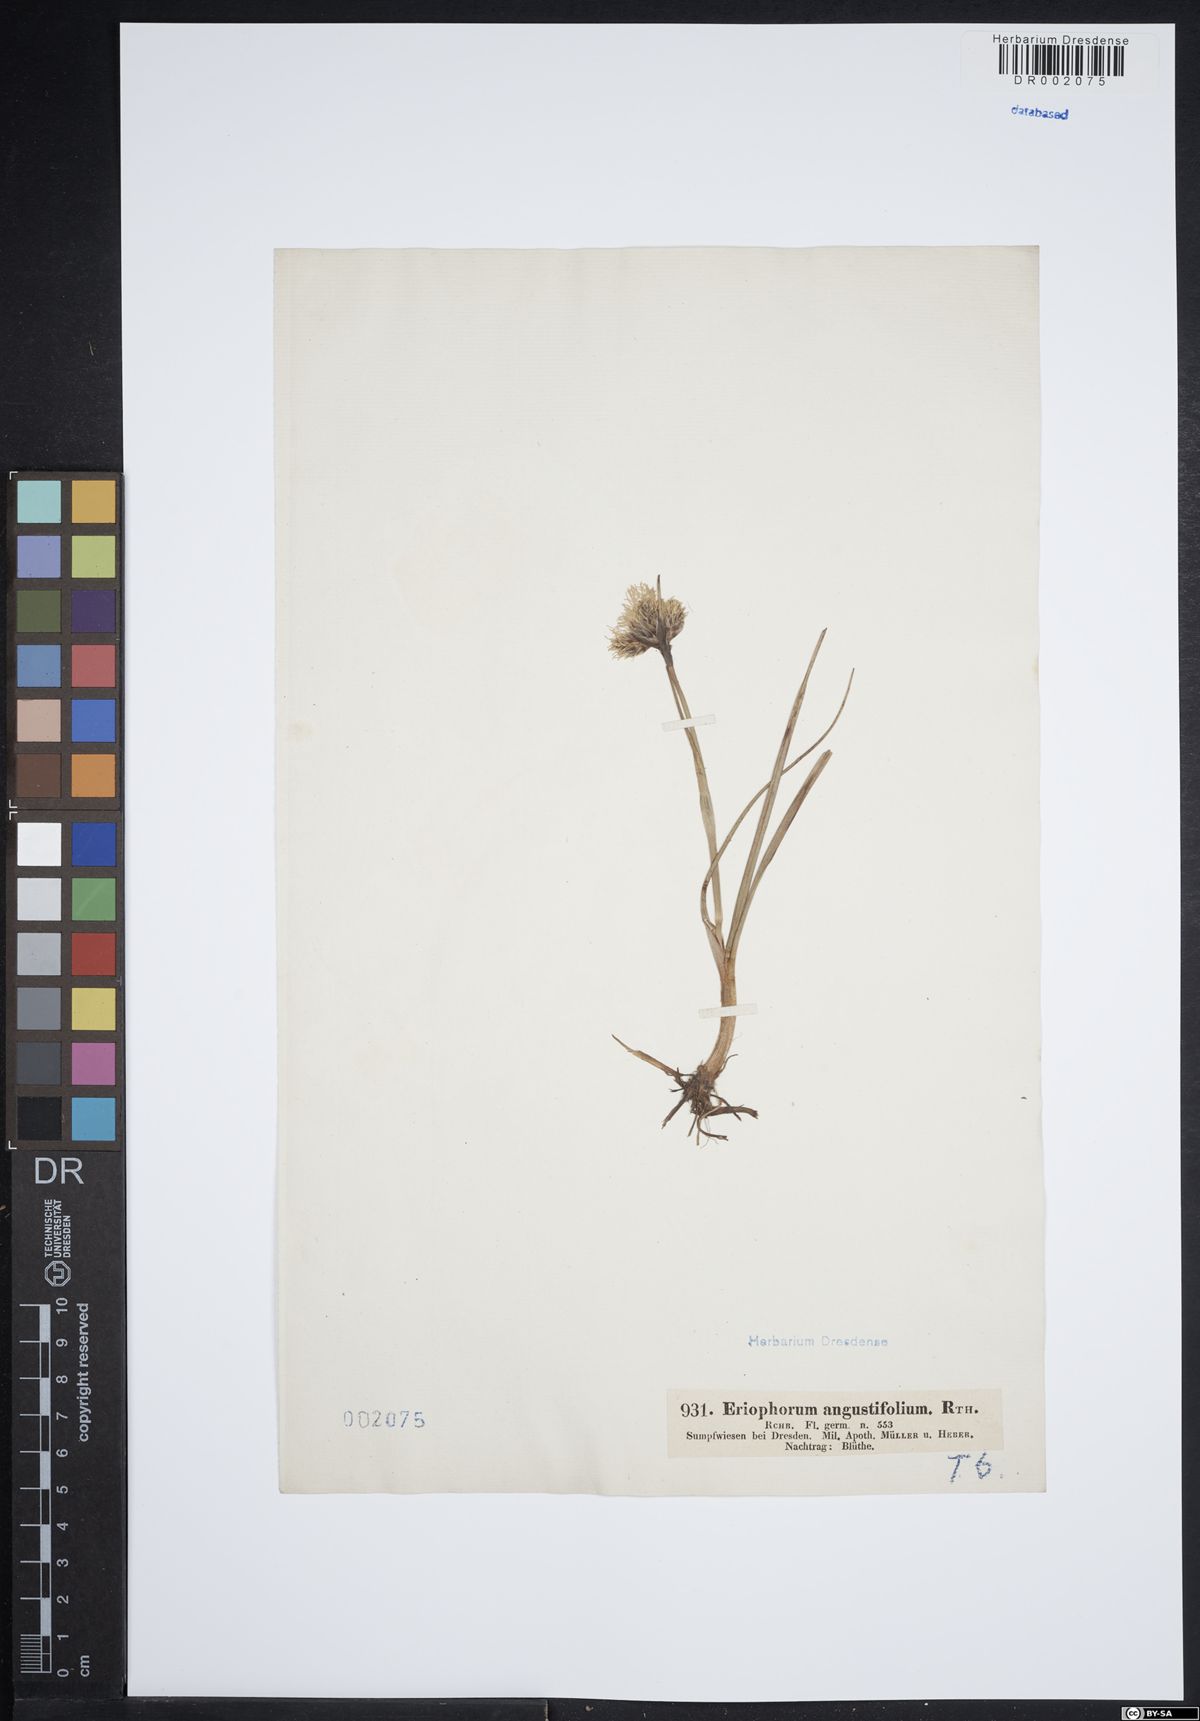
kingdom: Plantae
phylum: Tracheophyta
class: Liliopsida
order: Poales
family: Cyperaceae
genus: Eriophorum
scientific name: Eriophorum angustifolium
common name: Common cottongrass
